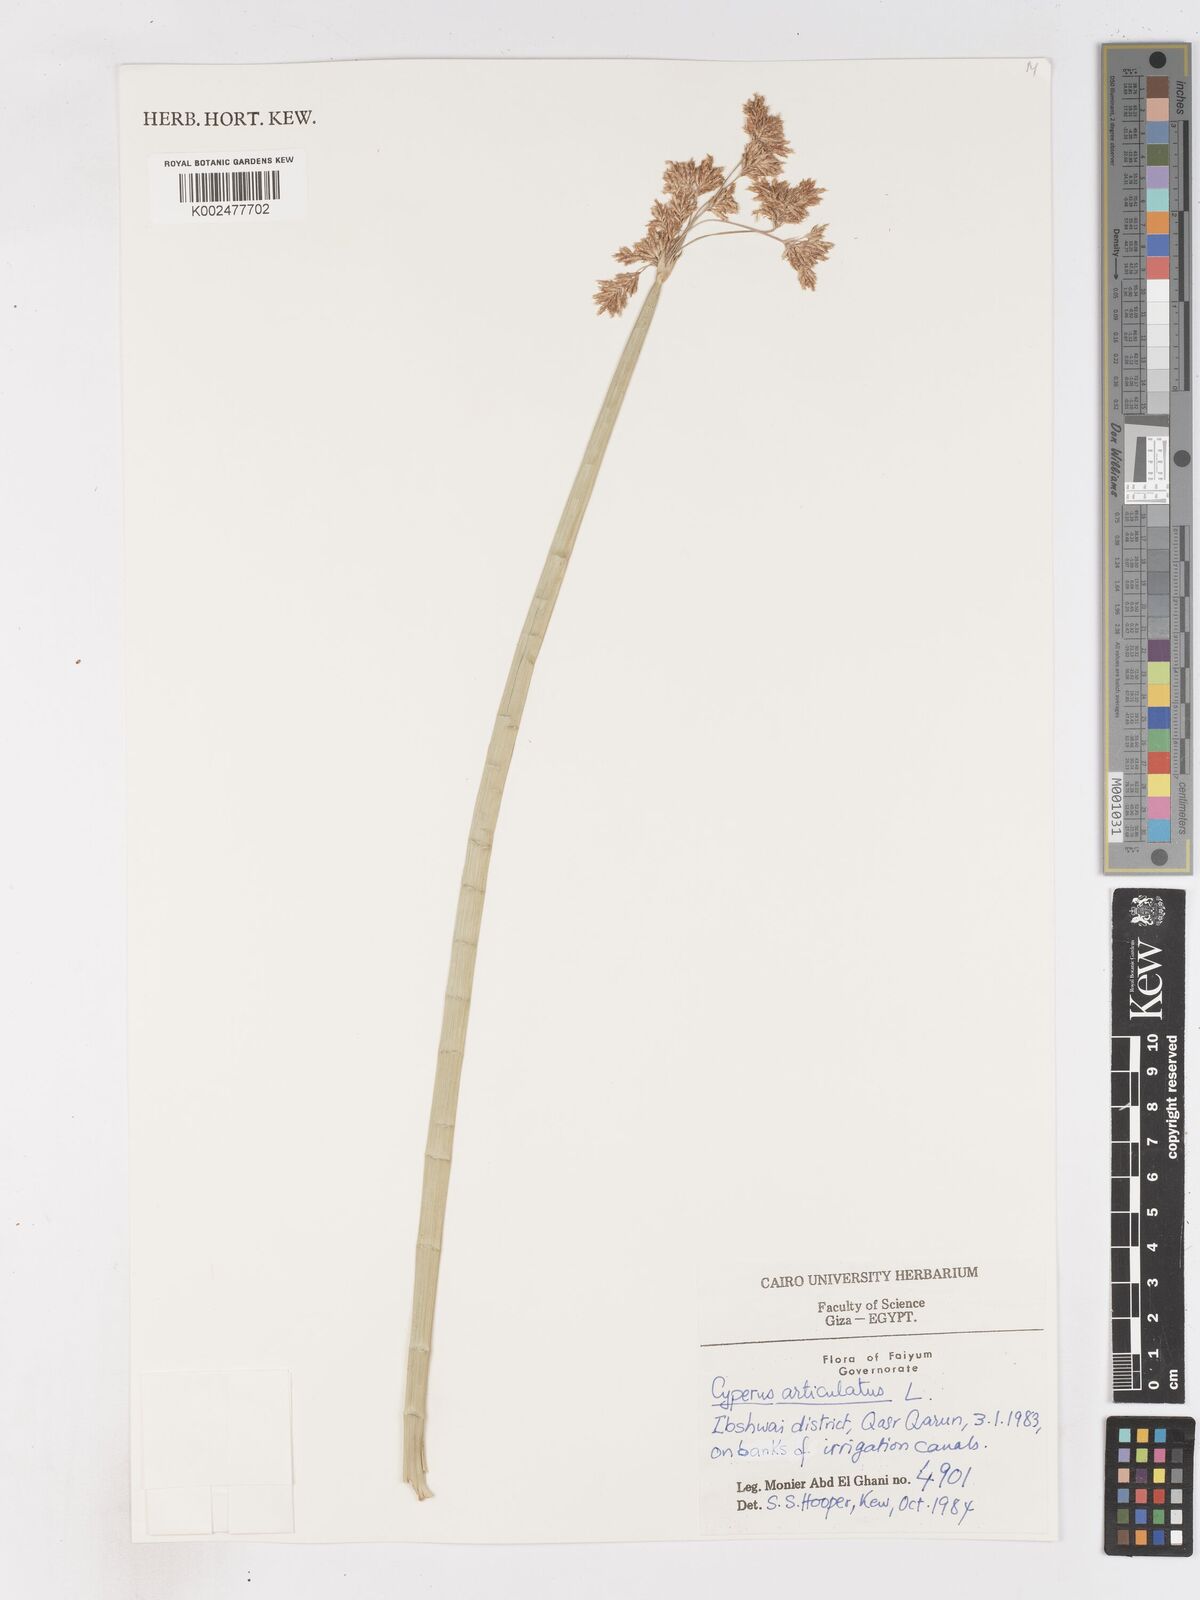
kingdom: Plantae
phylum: Tracheophyta
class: Liliopsida
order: Poales
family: Cyperaceae
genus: Cyperus
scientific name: Cyperus articulatus
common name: Jointed flatsedge
